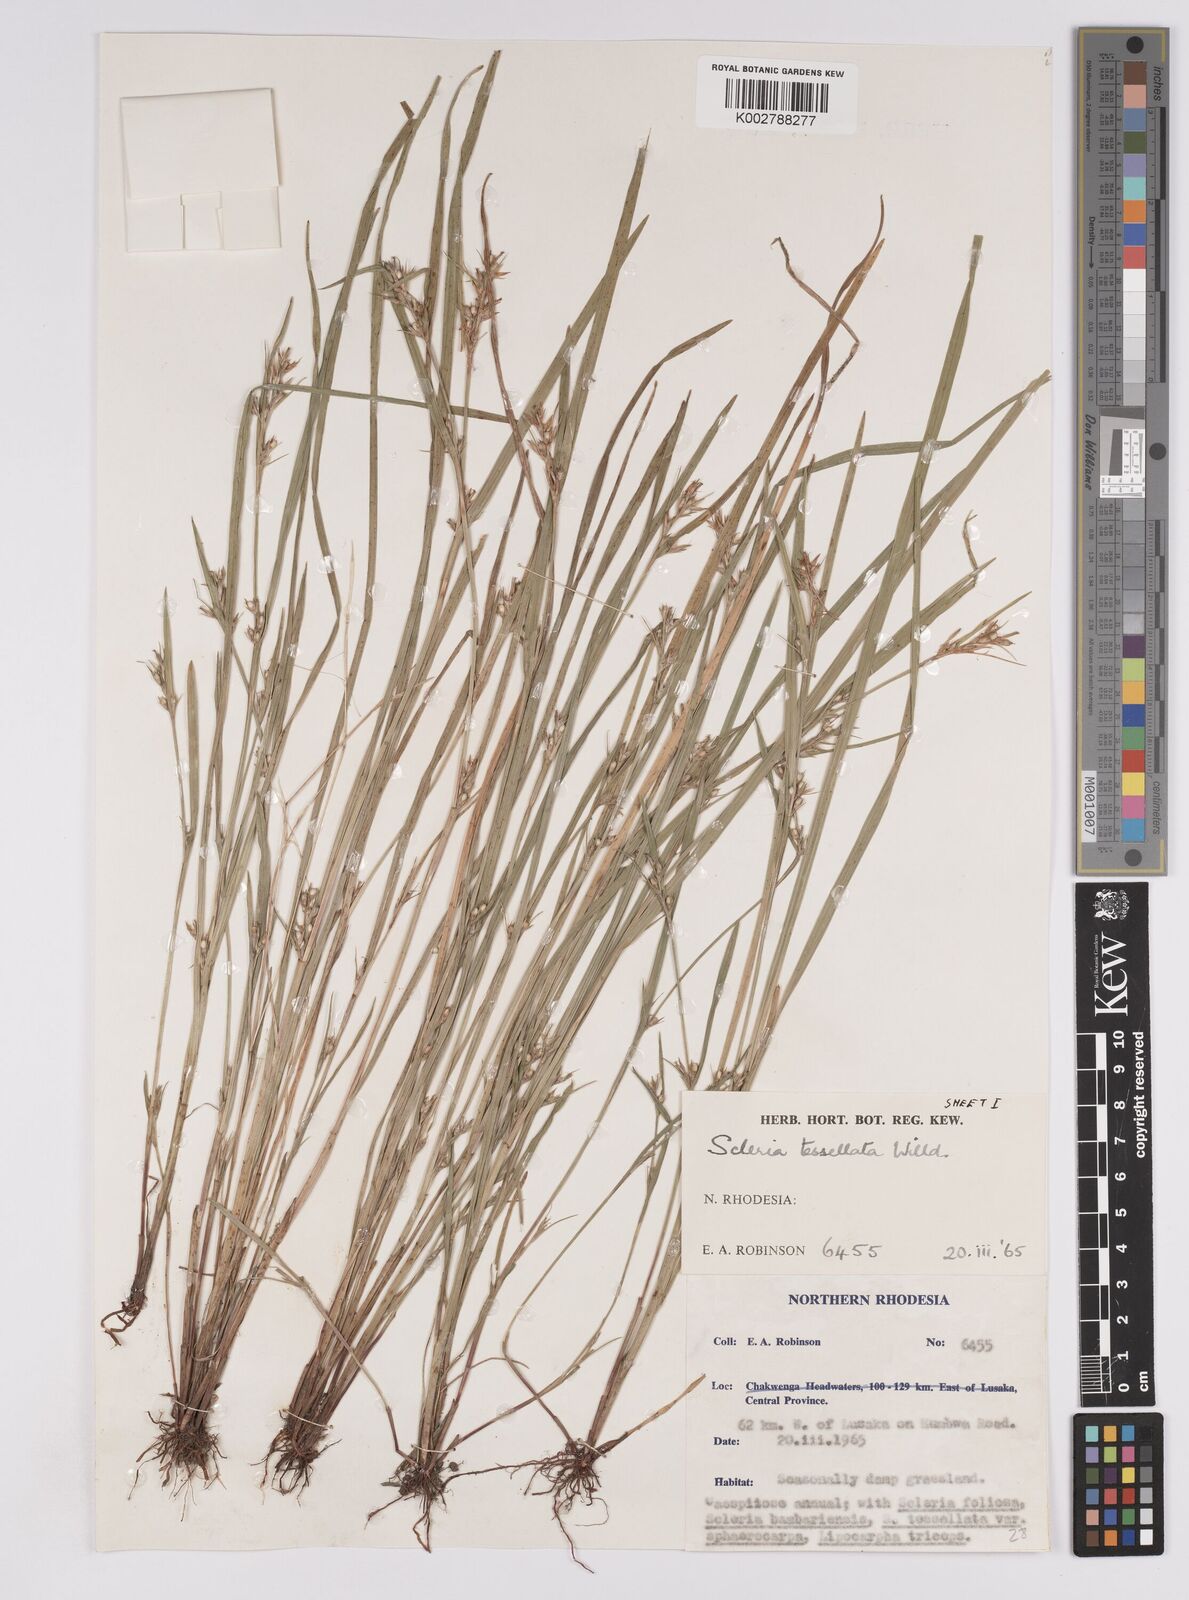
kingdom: Plantae
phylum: Tracheophyta
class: Liliopsida
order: Poales
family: Cyperaceae
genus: Scleria
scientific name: Scleria tessellata
